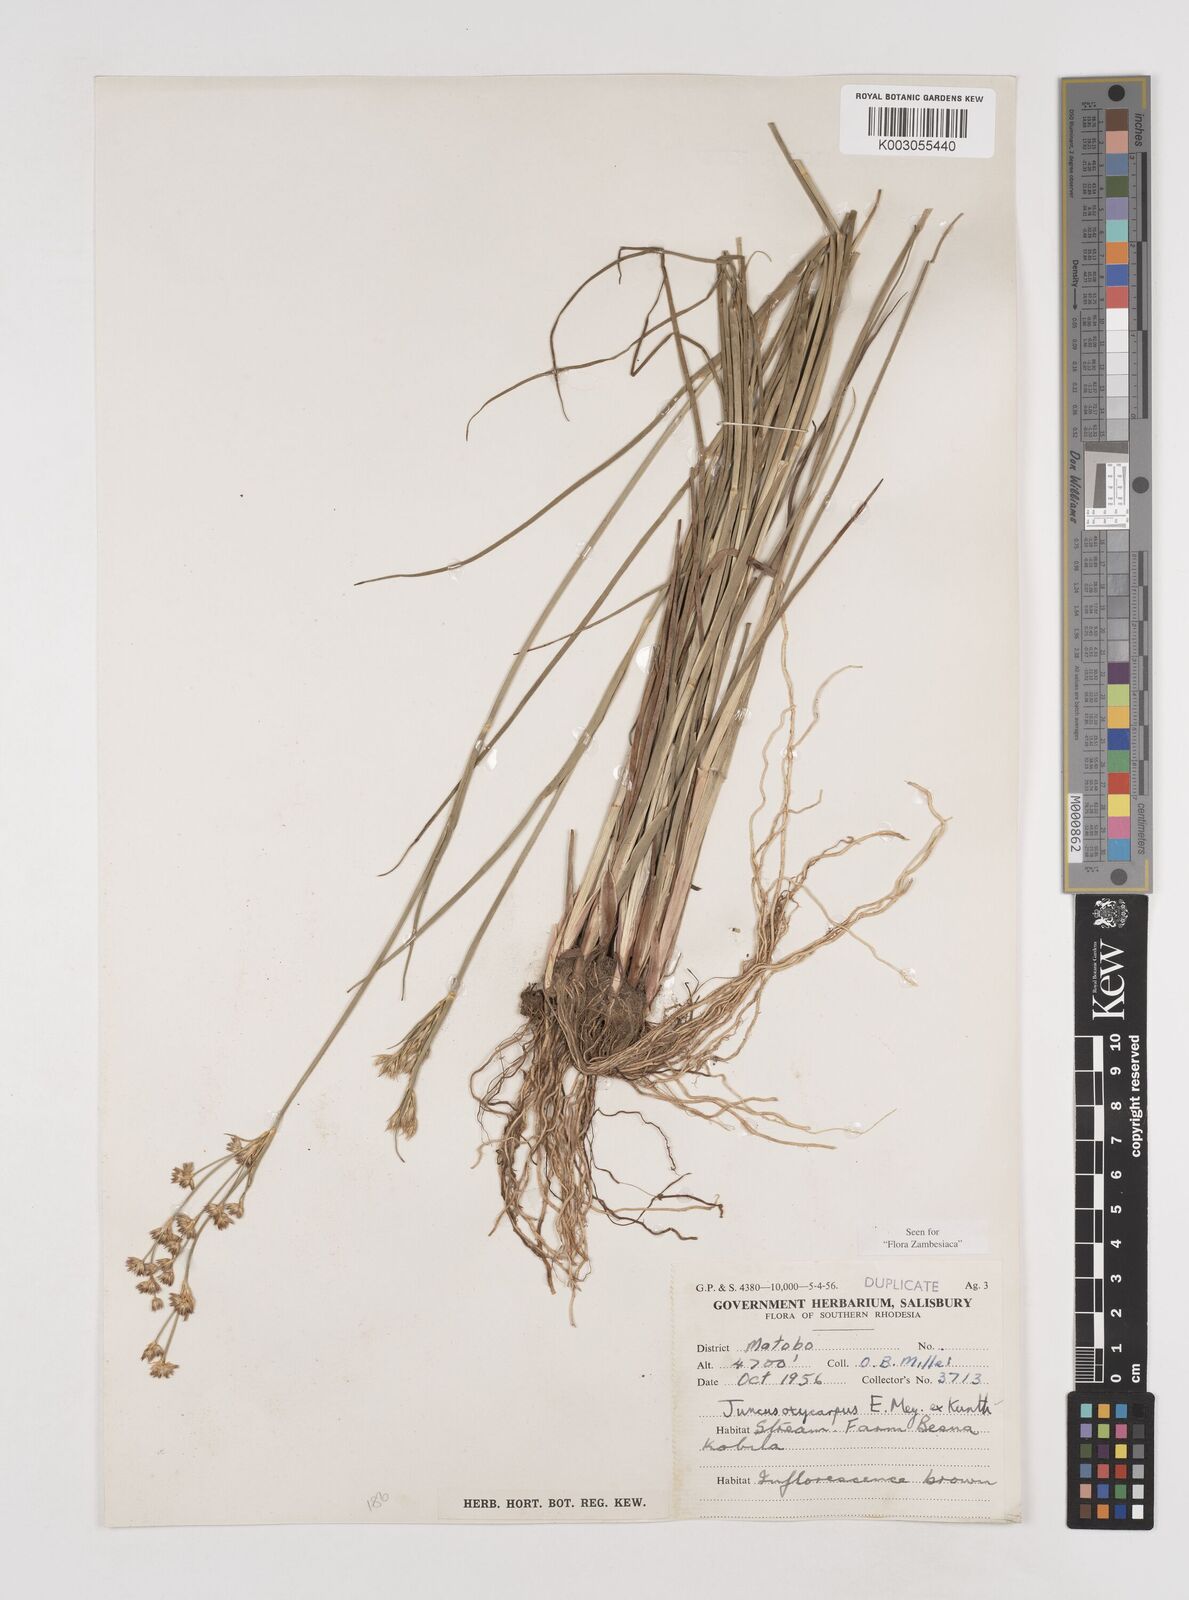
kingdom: Plantae
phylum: Tracheophyta
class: Liliopsida
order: Poales
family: Juncaceae
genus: Juncus
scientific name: Juncus oxycarpus
